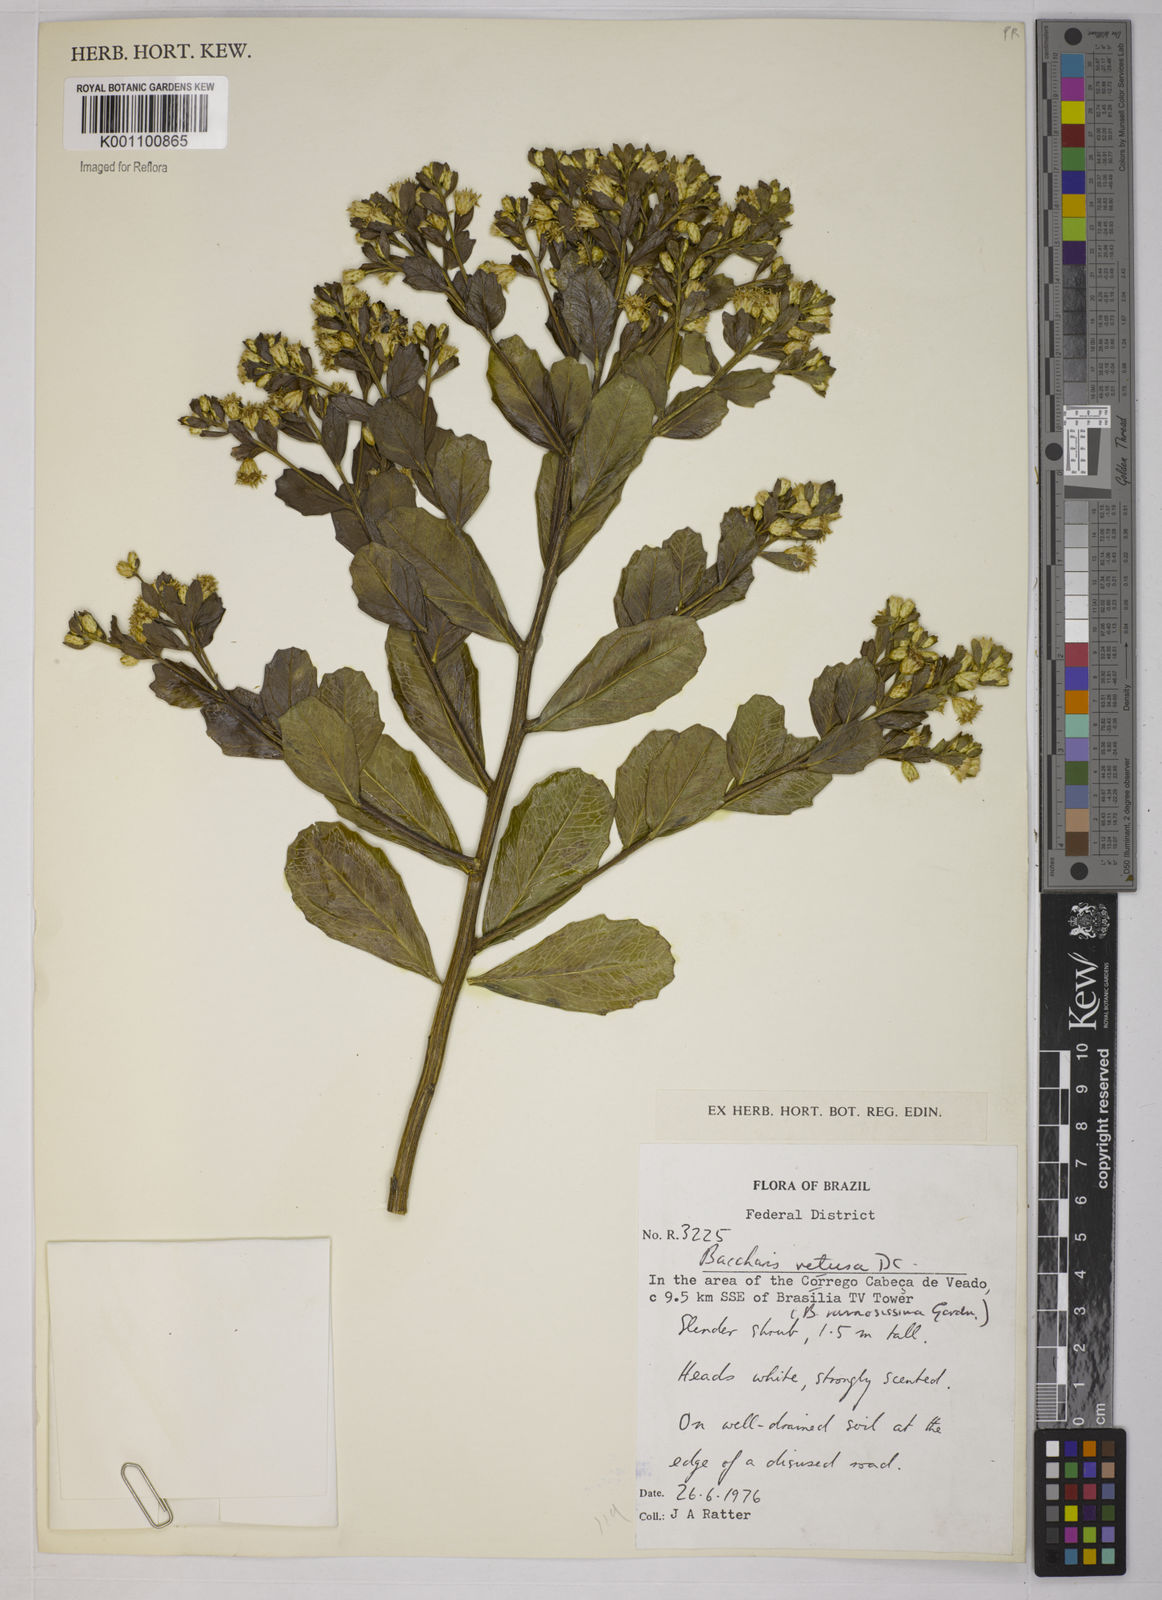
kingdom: Plantae
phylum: Tracheophyta
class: Magnoliopsida
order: Asterales
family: Asteraceae
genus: Baccharis
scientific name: Baccharis retusa
